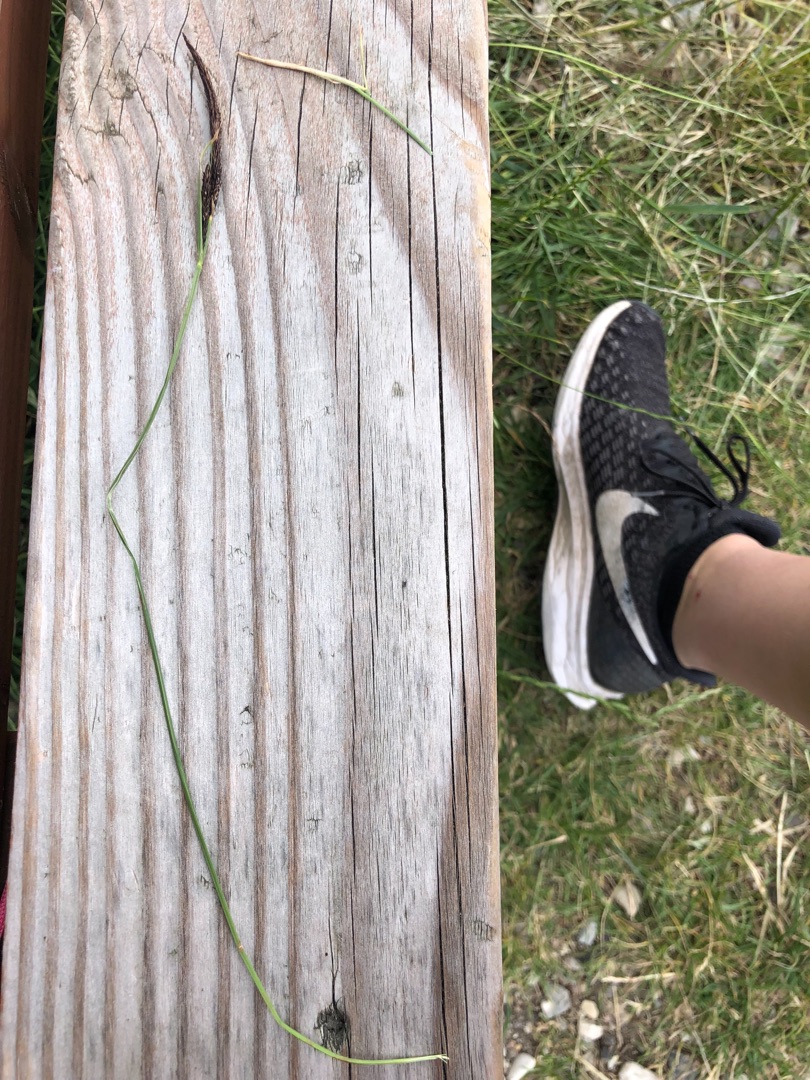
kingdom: Plantae
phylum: Tracheophyta
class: Liliopsida
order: Poales
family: Cyperaceae
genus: Carex
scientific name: Carex nigra
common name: Almindelig star
